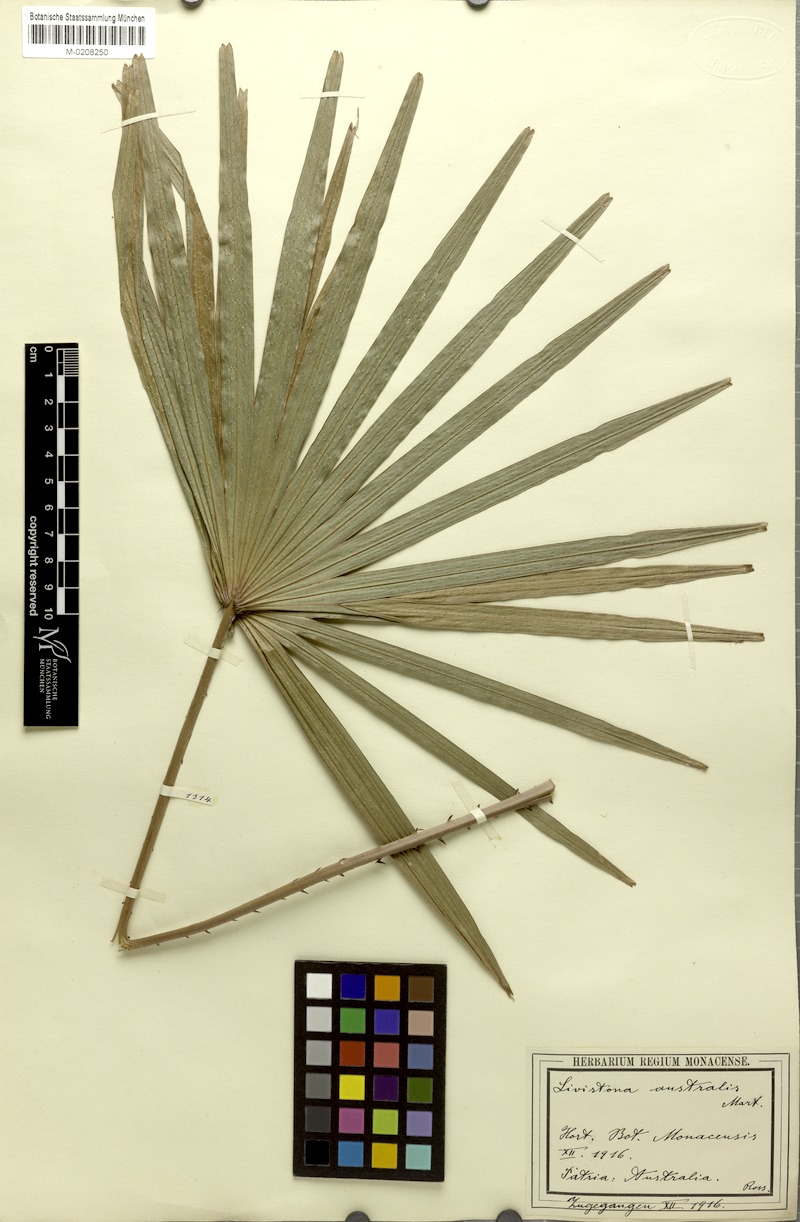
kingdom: Plantae
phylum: Tracheophyta
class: Liliopsida
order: Arecales
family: Arecaceae
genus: Livistona
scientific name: Livistona australis
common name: Cabbage fan palm
